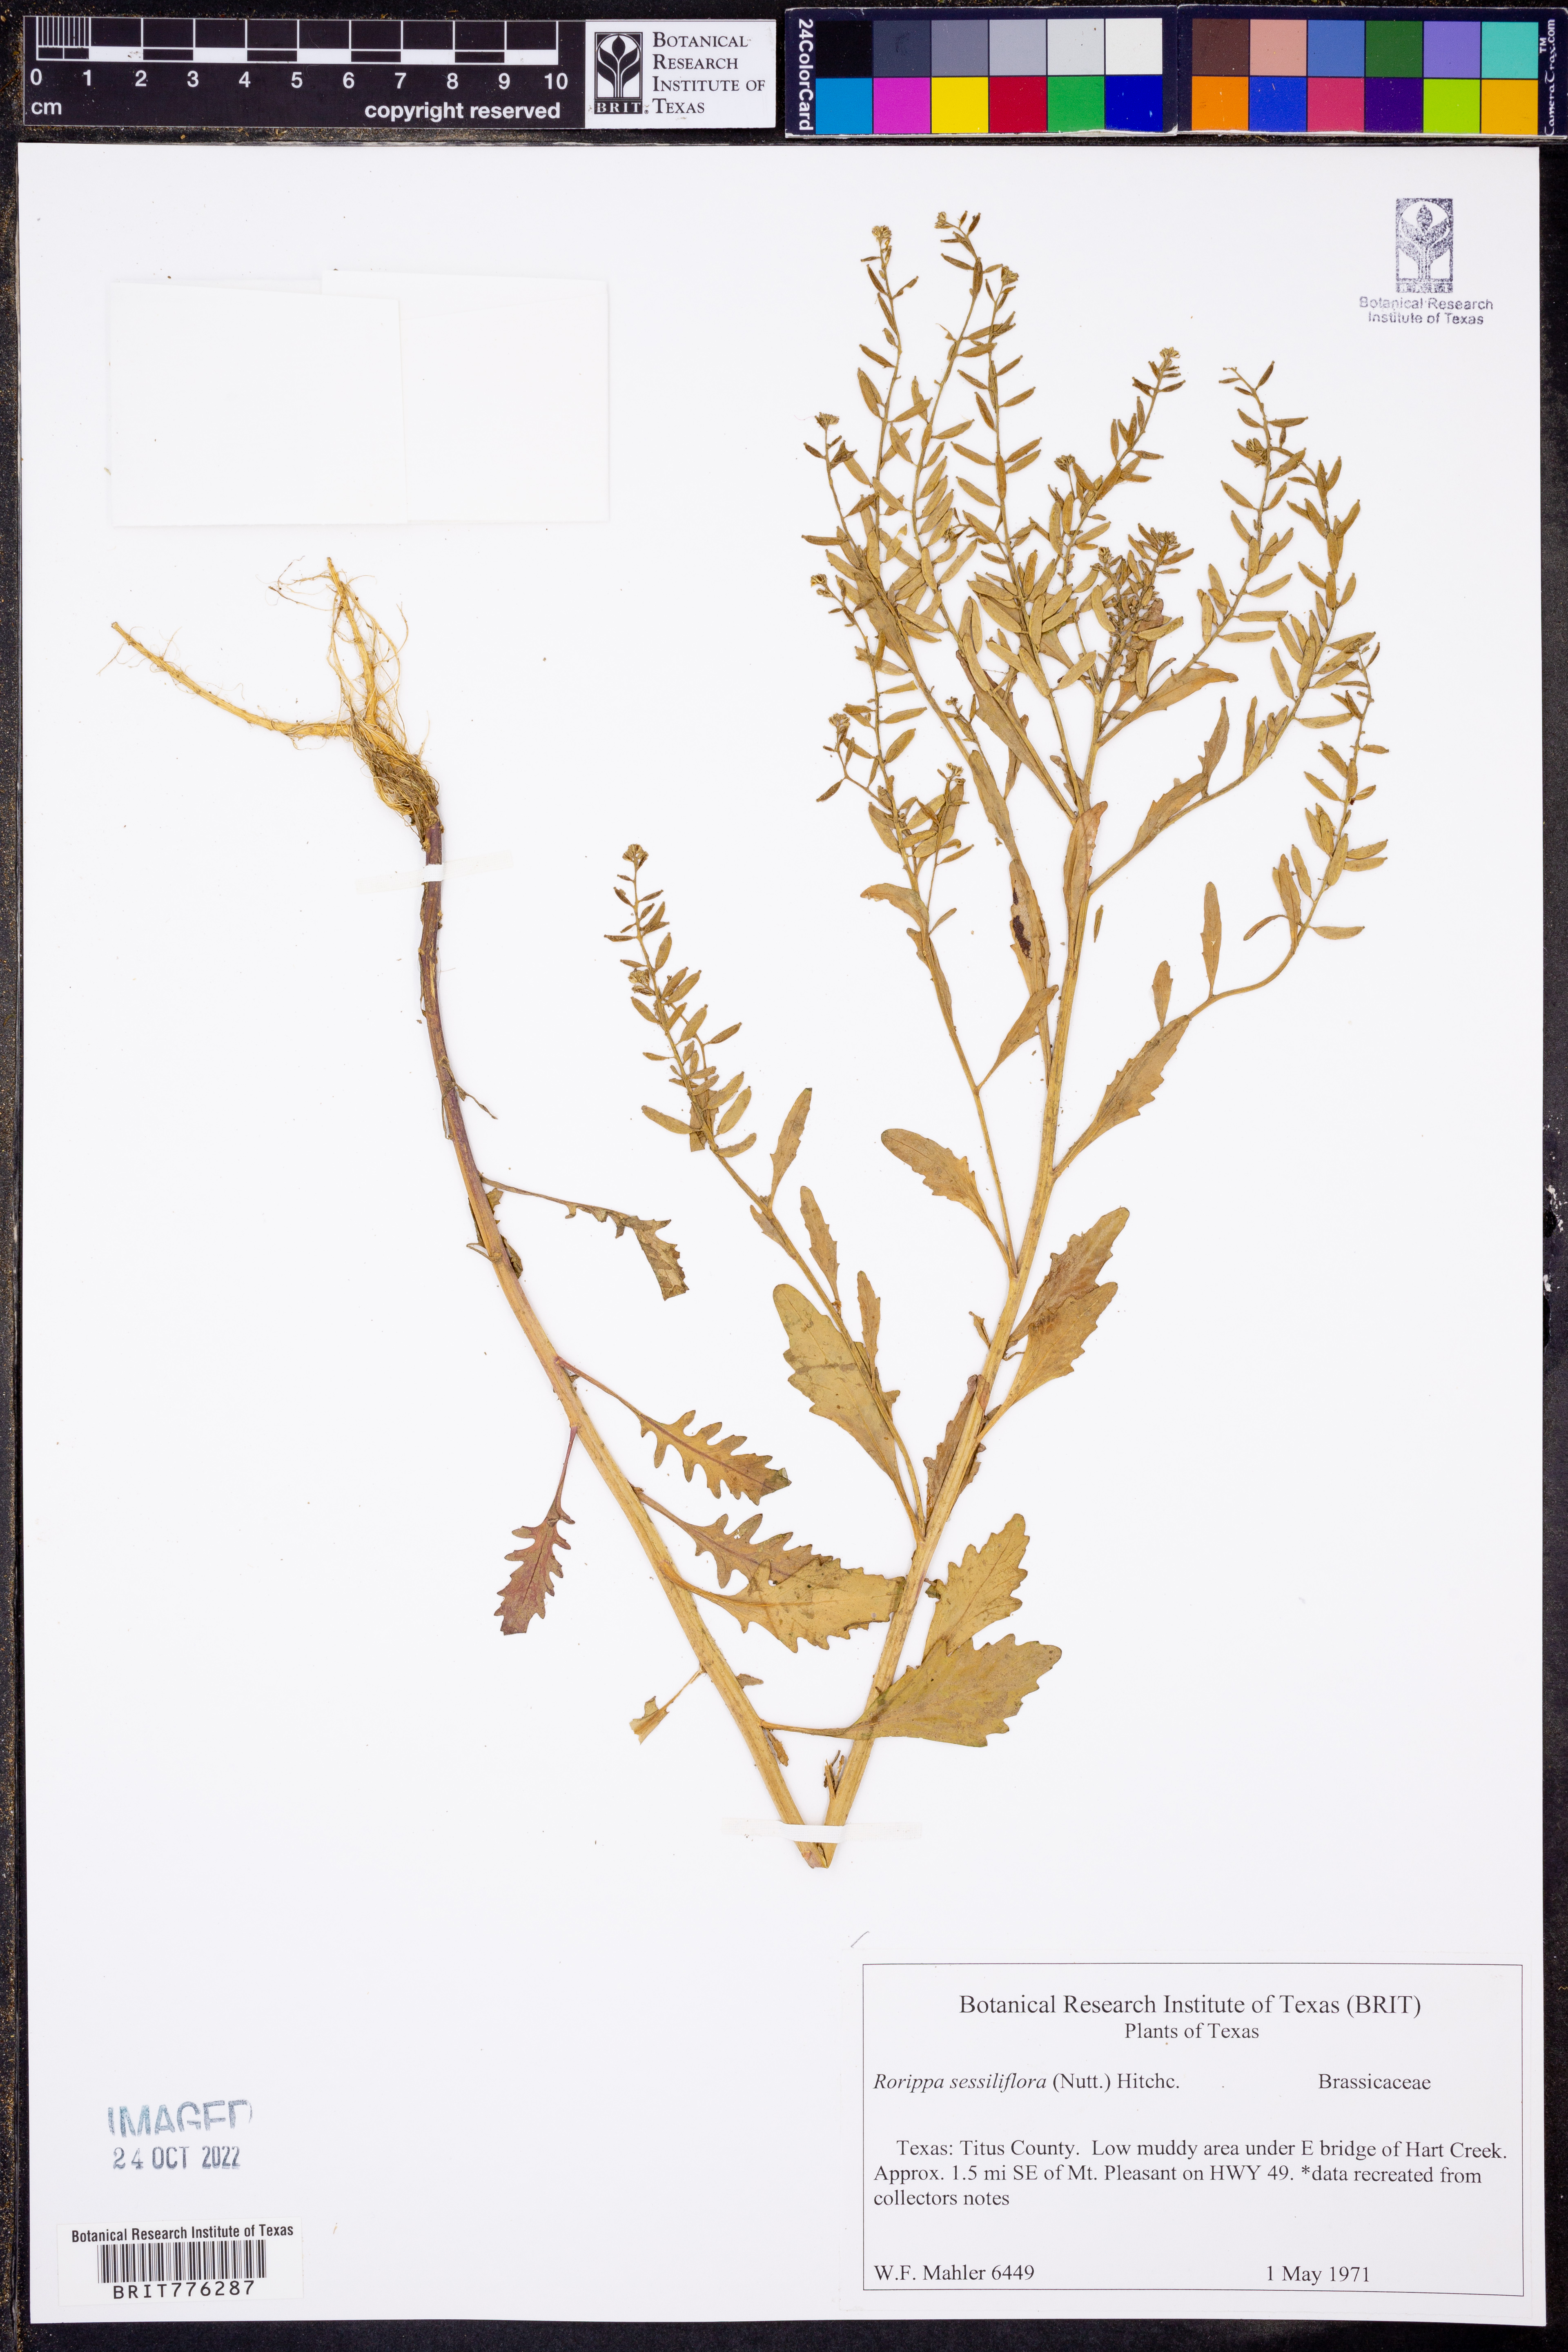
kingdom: Plantae
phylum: Tracheophyta
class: Magnoliopsida
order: Brassicales
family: Brassicaceae
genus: Rorippa
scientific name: Rorippa sessiliflora
